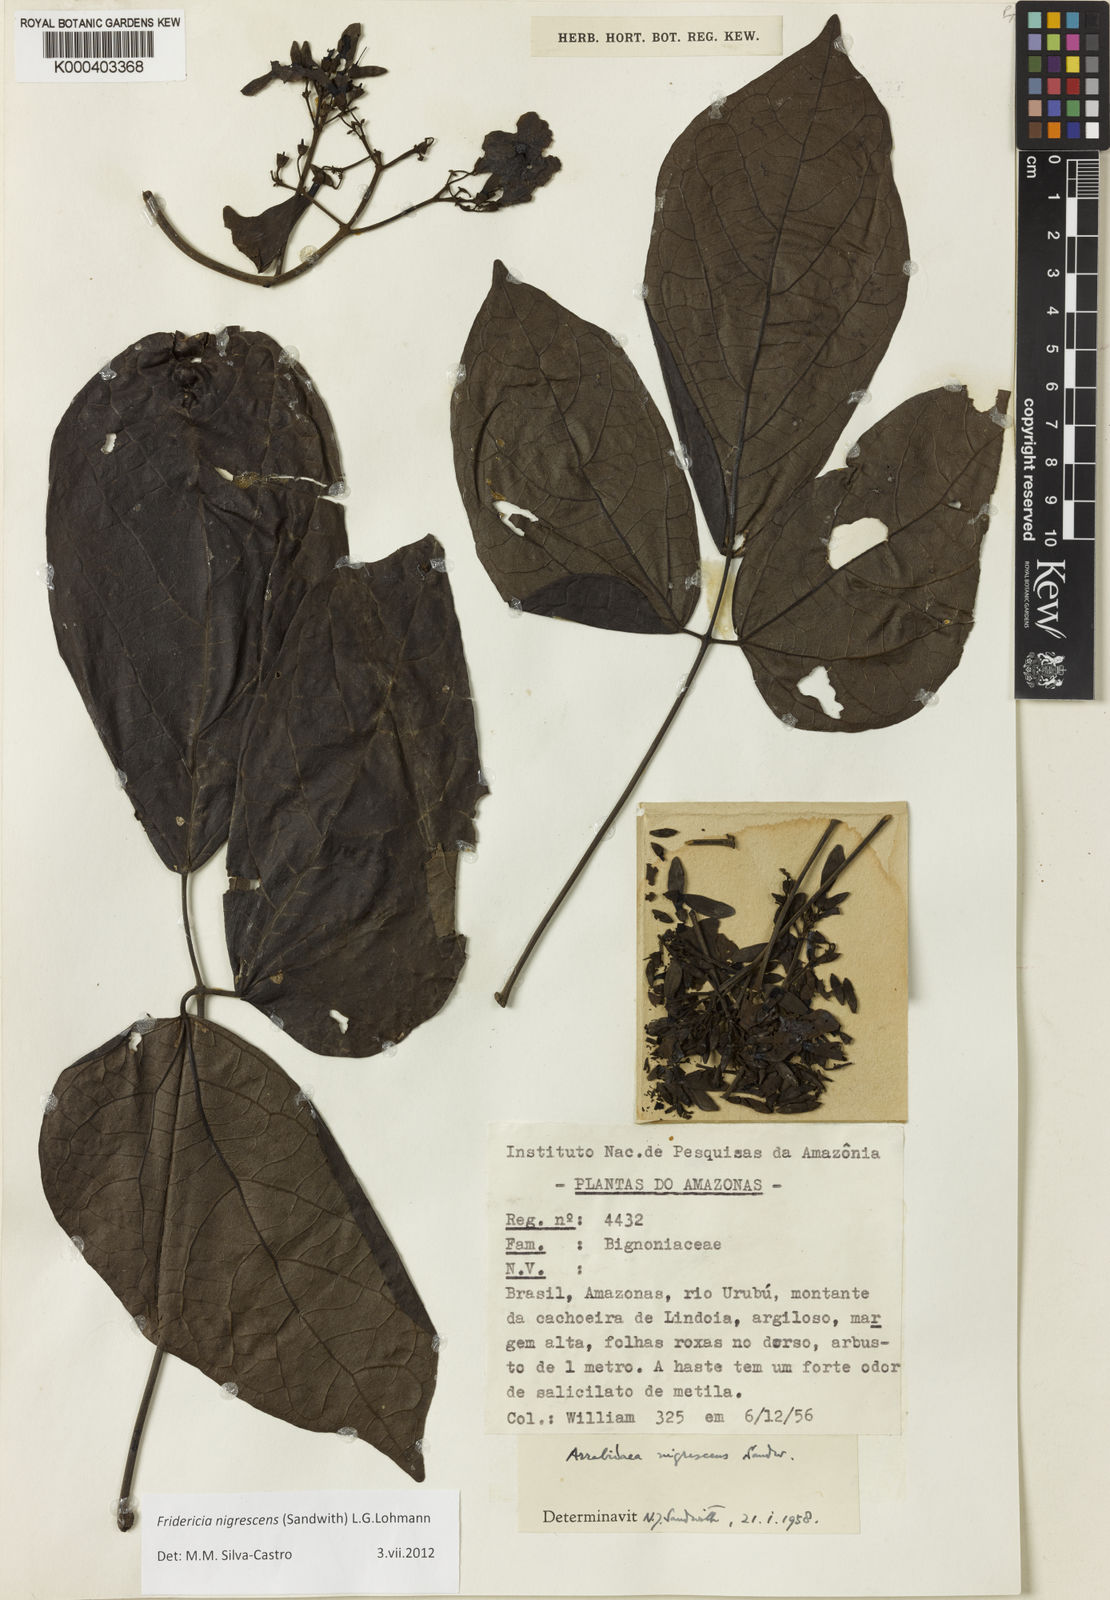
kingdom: Plantae
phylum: Tracheophyta
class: Magnoliopsida
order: Lamiales
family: Bignoniaceae
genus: Fridericia
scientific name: Fridericia nigrescens
